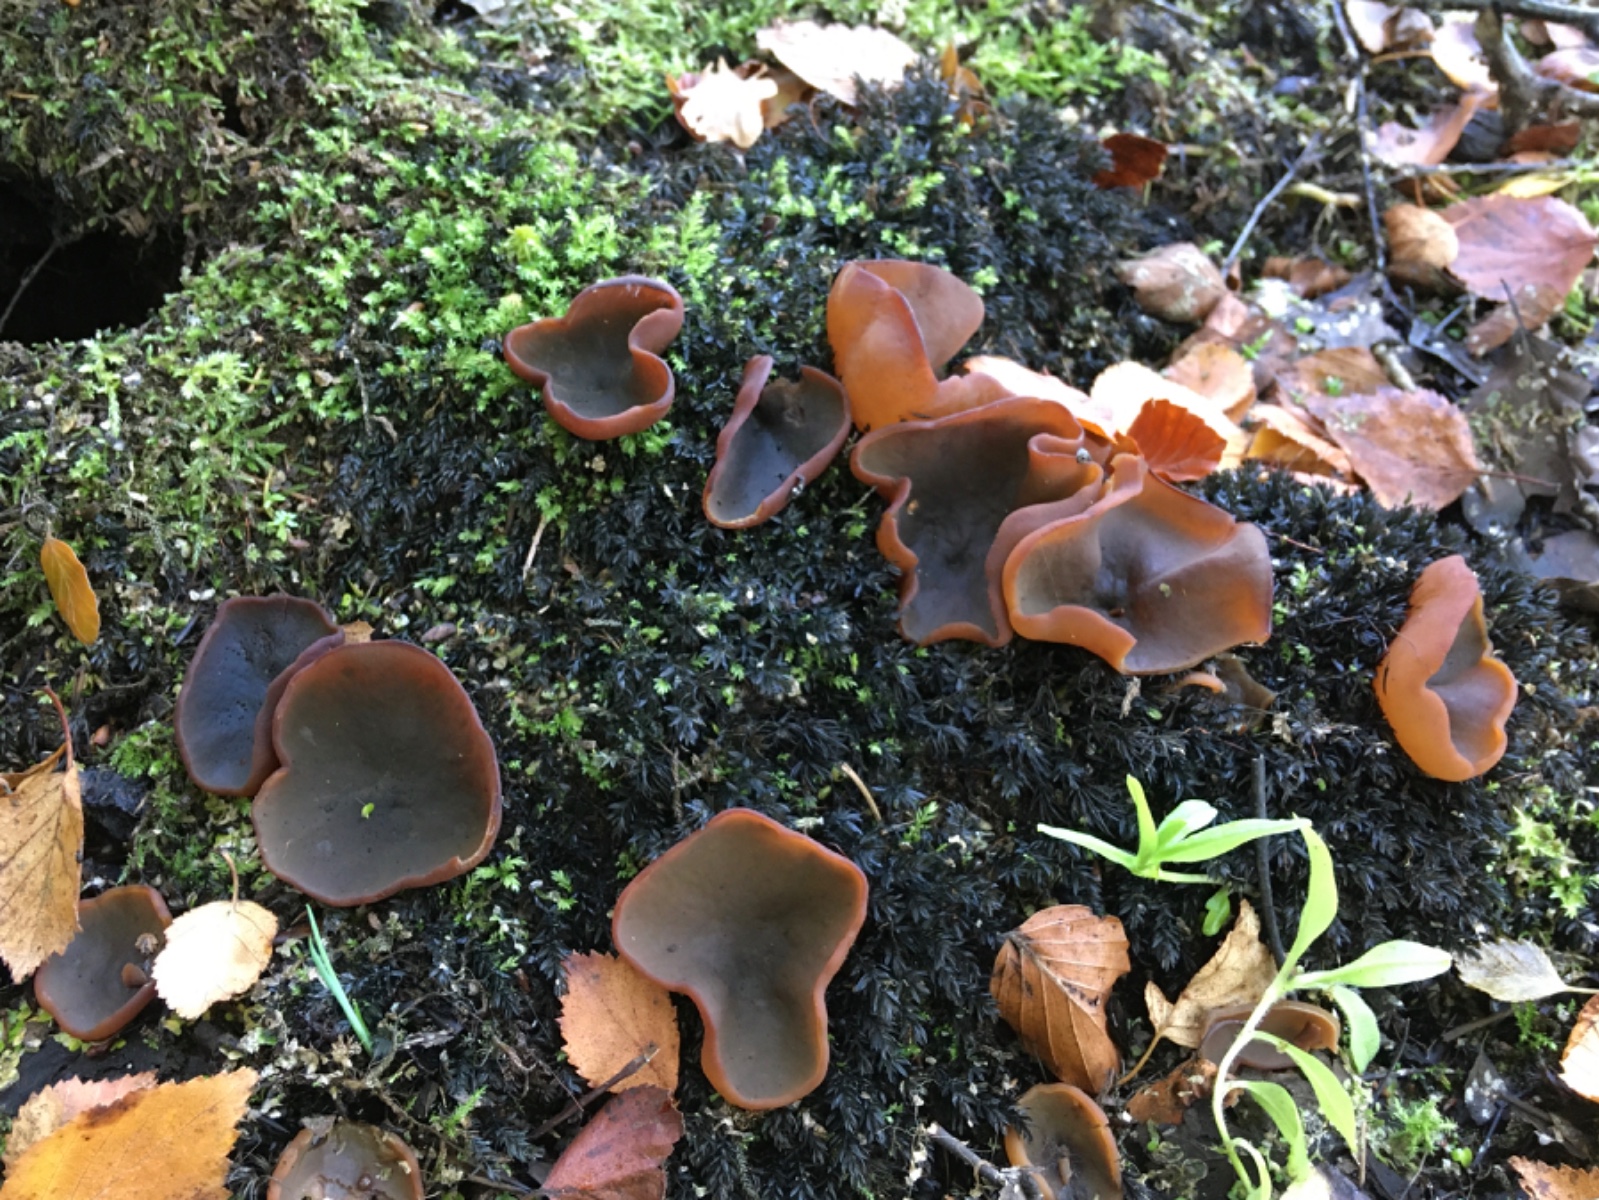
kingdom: Fungi
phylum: Ascomycota
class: Pezizomycetes
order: Pezizales
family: Pezizaceae
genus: Legaliana
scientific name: Legaliana limnaea
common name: mose-bægersvamp
